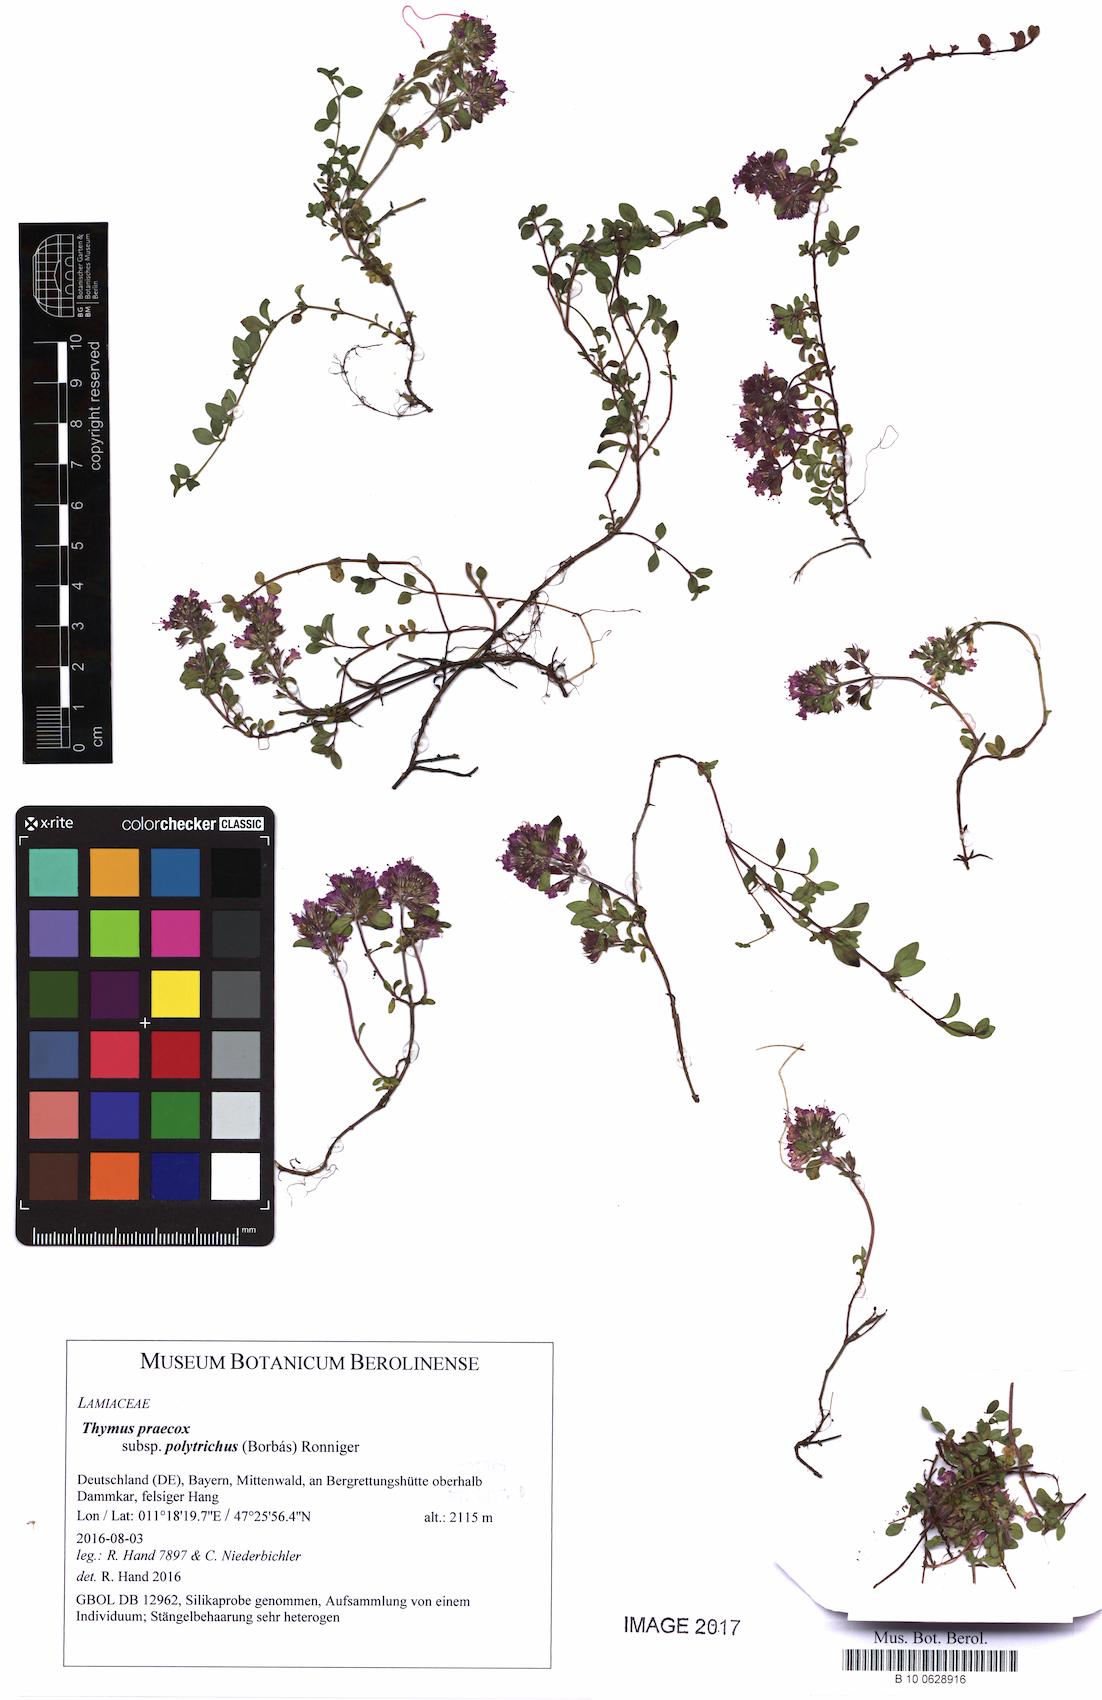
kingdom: Plantae
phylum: Tracheophyta
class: Magnoliopsida
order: Lamiales
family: Lamiaceae
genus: Thymus
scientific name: Thymus praecox
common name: Wild thyme
